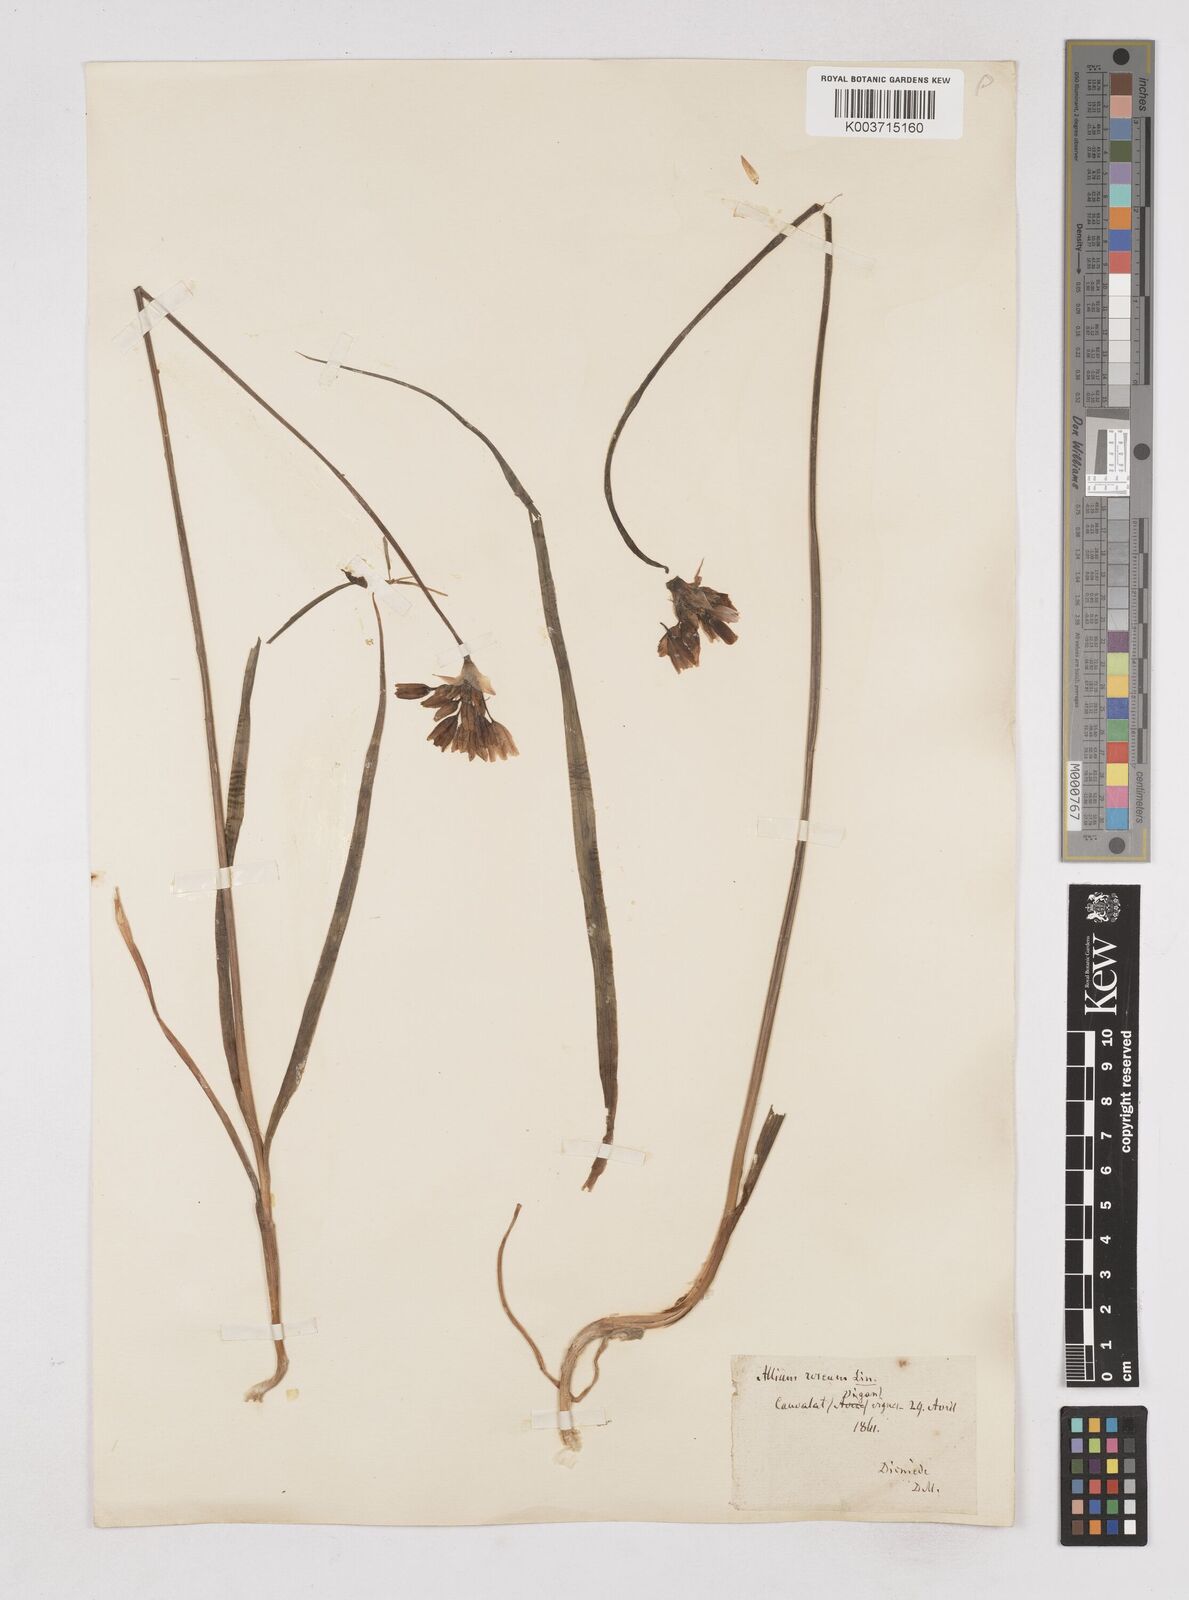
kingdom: Plantae
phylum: Tracheophyta
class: Liliopsida
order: Asparagales
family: Amaryllidaceae
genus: Allium
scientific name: Allium roseum
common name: Rosy garlic
